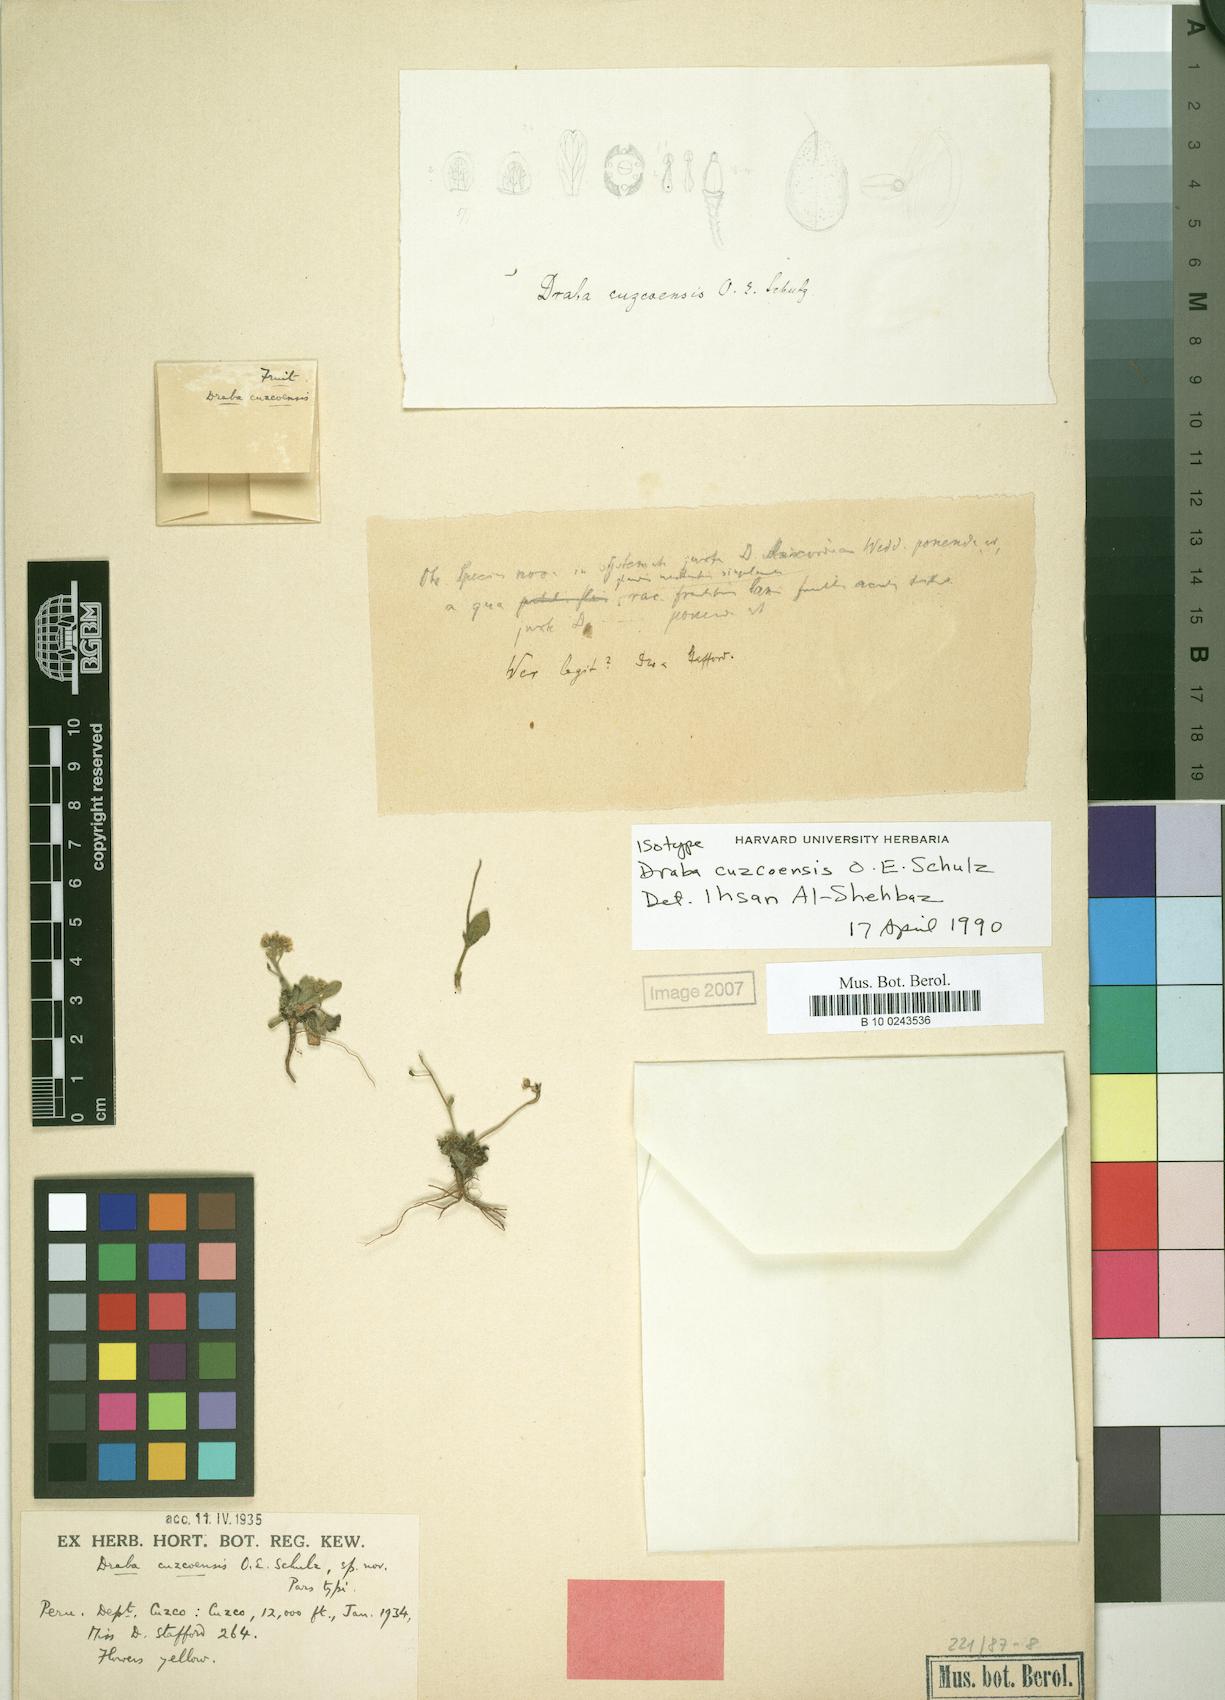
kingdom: Plantae
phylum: Tracheophyta
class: Magnoliopsida
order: Brassicales
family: Brassicaceae
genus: Draba
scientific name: Draba cuzcoensis
